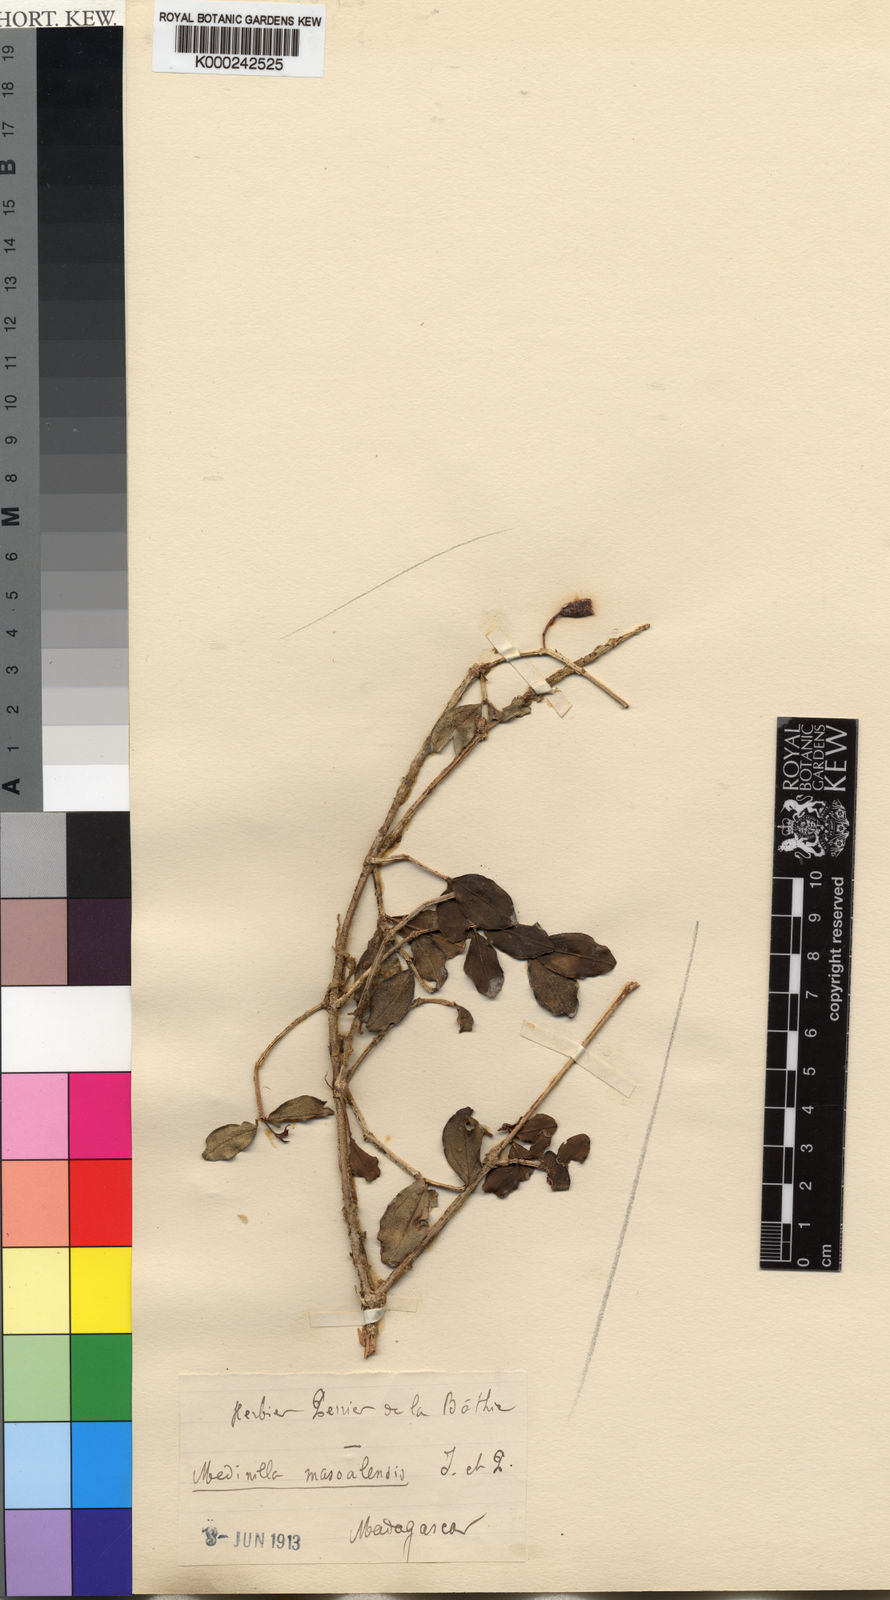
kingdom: Plantae
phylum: Tracheophyta
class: Magnoliopsida
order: Myrtales
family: Melastomataceae
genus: Medinilla
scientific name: Medinilla masoalensis
